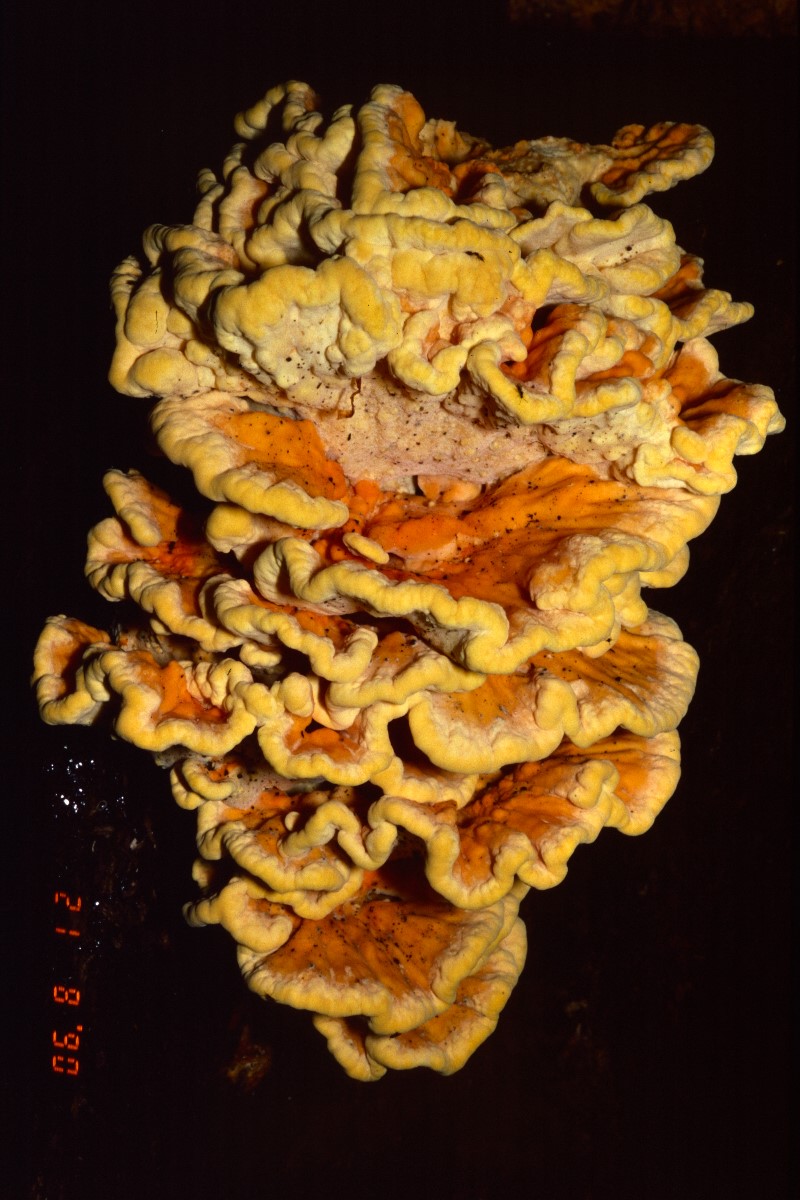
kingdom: Fungi
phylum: Basidiomycota
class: Agaricomycetes
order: Polyporales
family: Laetiporaceae
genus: Laetiporus
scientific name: Laetiporus sulphureus
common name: svovlporesvamp
